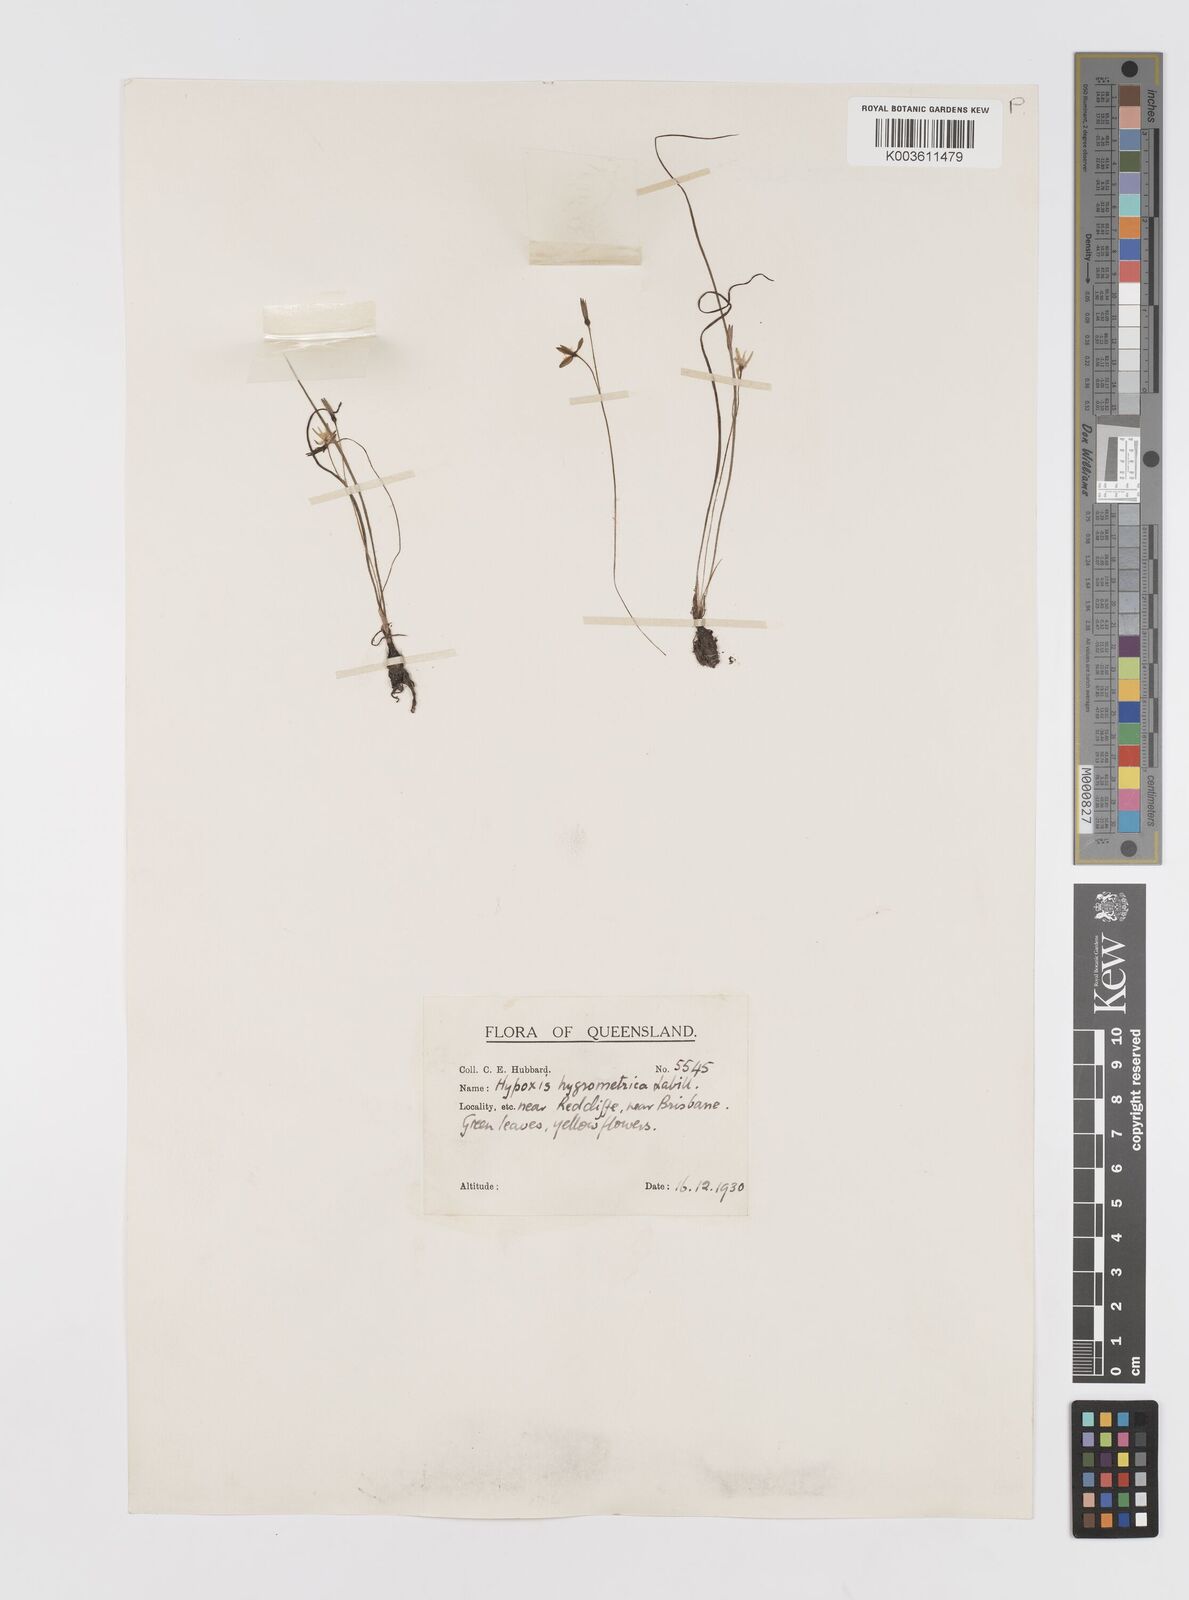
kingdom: Plantae
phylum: Tracheophyta
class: Liliopsida
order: Asparagales
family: Hypoxidaceae
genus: Hypoxis
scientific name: Hypoxis hygrometrica
